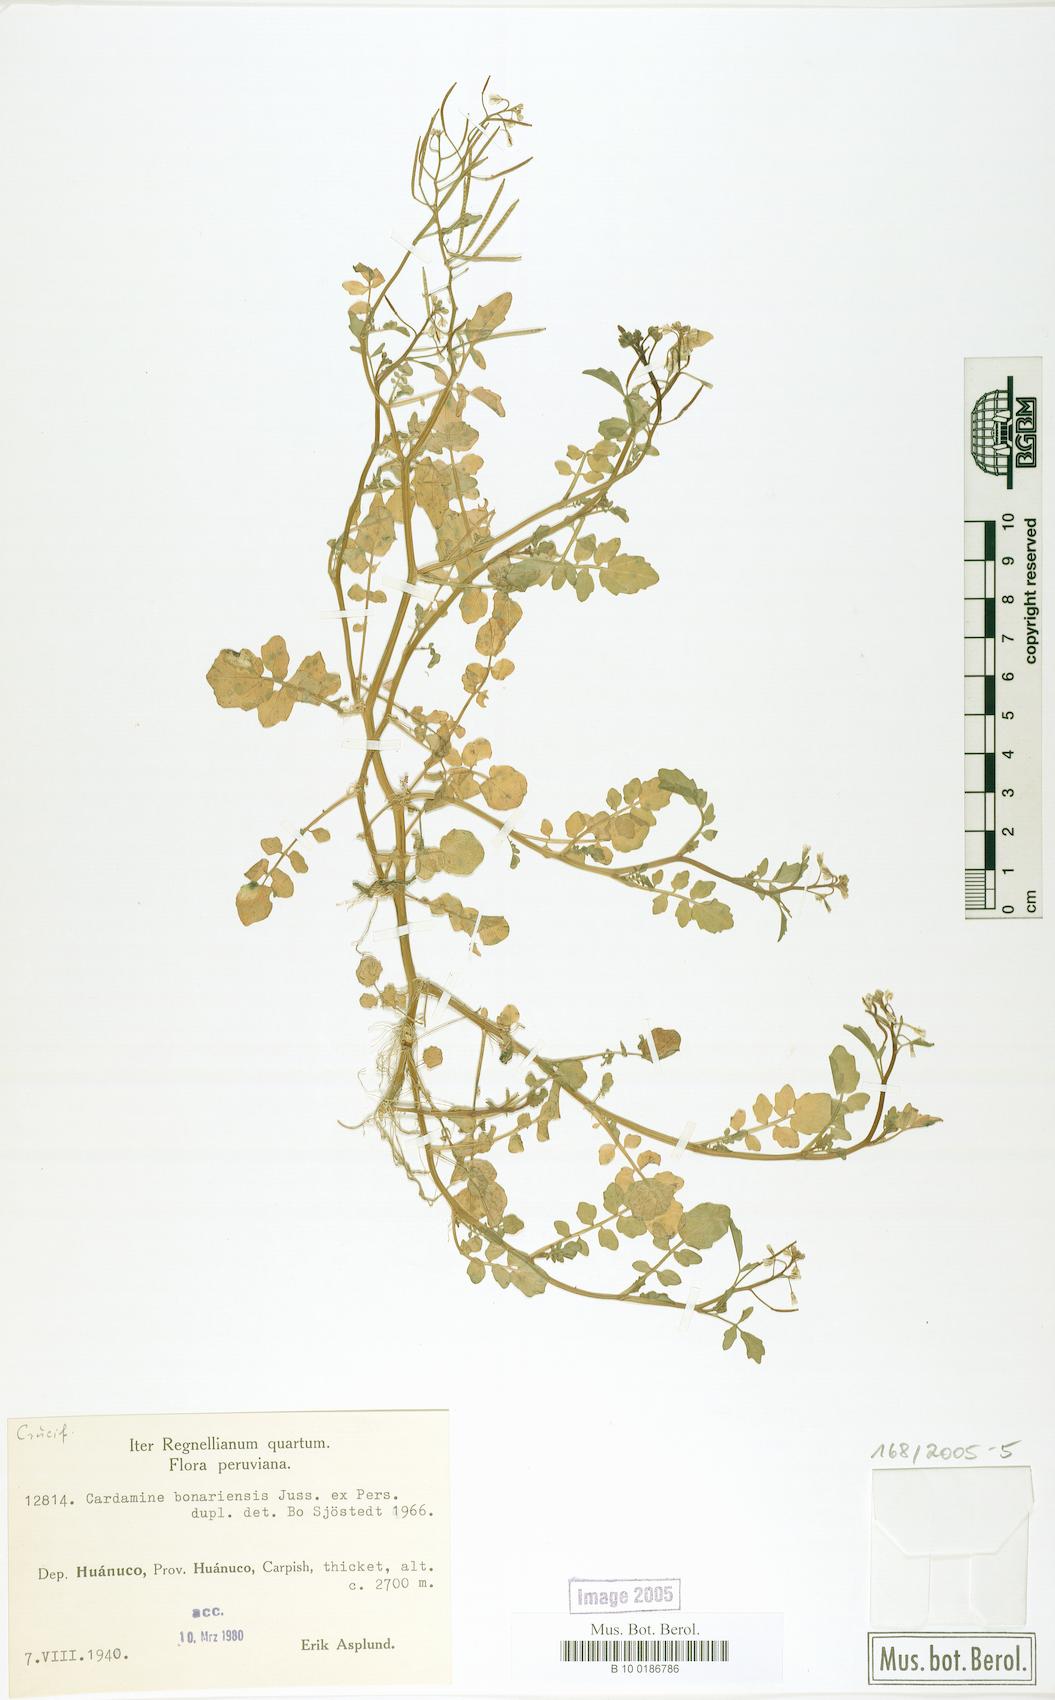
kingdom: Plantae
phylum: Tracheophyta
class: Magnoliopsida
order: Brassicales
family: Brassicaceae
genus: Cardamine
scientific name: Cardamine bonariensis
